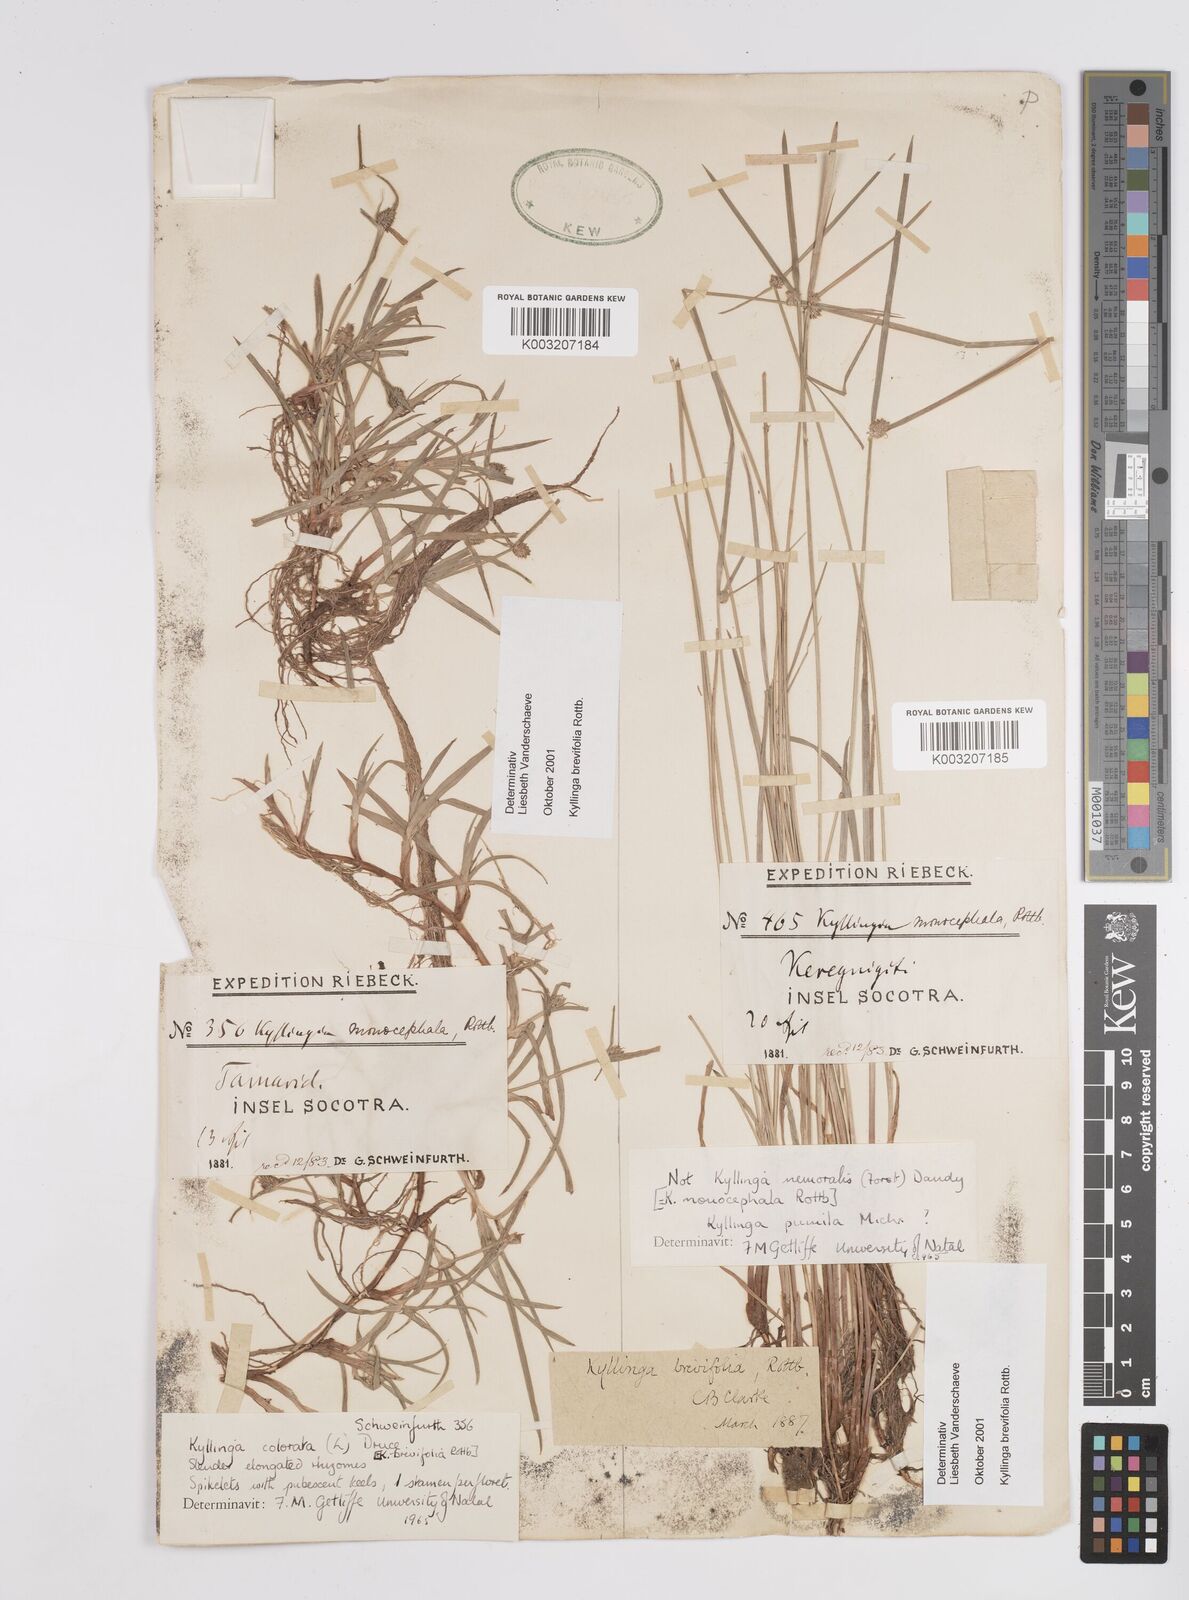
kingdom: Plantae
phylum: Tracheophyta
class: Liliopsida
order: Poales
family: Cyperaceae
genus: Cyperus
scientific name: Cyperus
